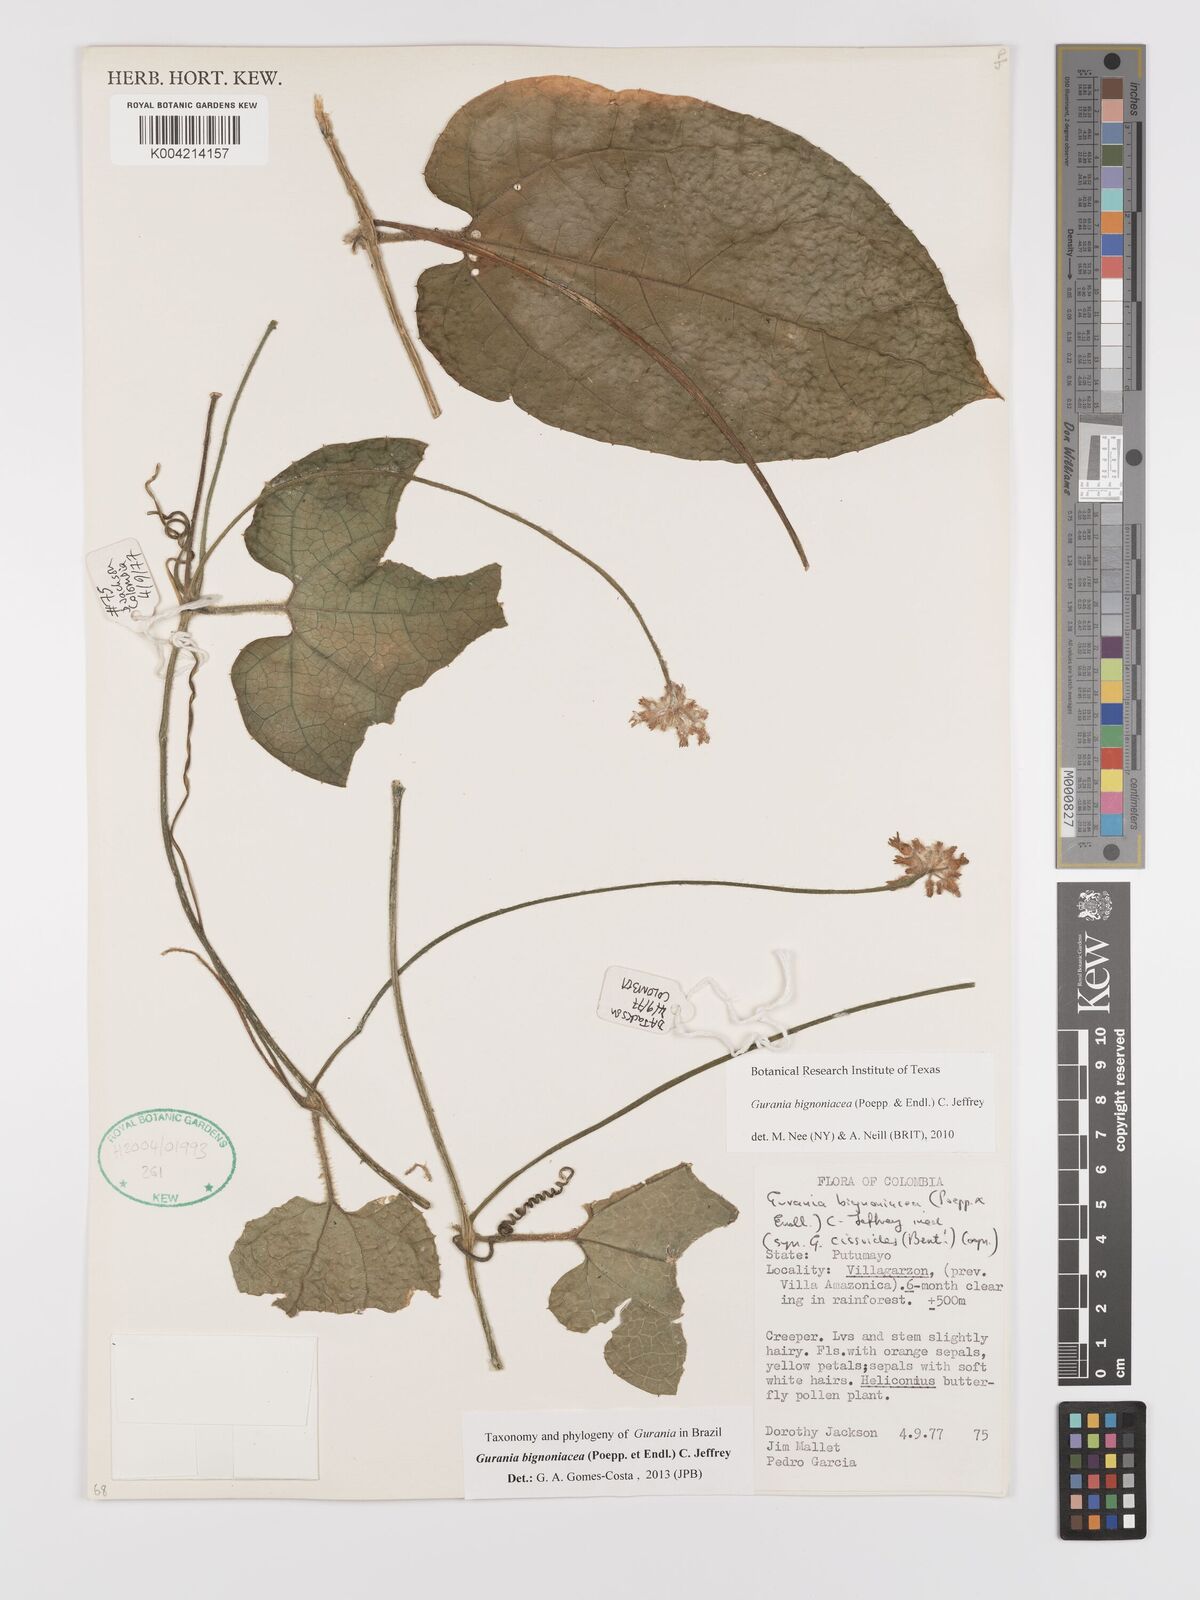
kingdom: Plantae
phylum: Tracheophyta
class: Magnoliopsida
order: Cucurbitales
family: Cucurbitaceae
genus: Gurania
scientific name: Gurania bignoniacea
